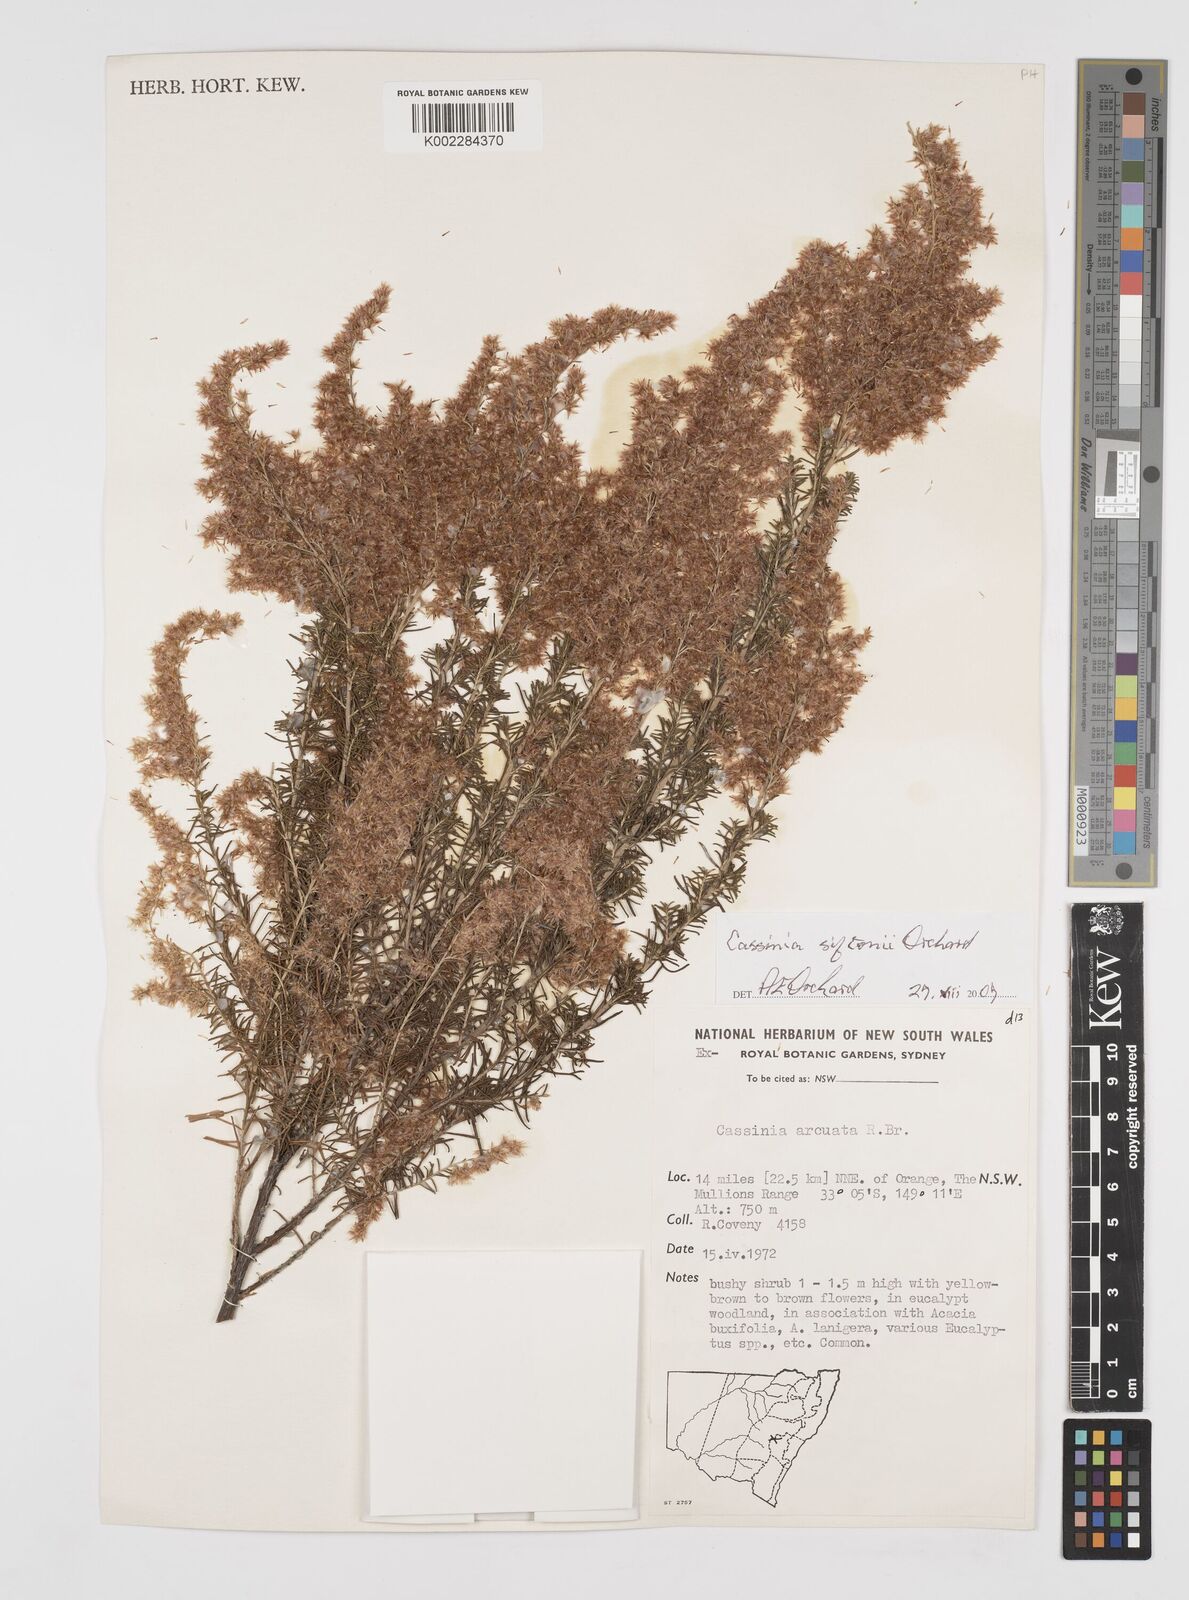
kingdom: Plantae
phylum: Tracheophyta
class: Magnoliopsida
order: Asterales
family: Asteraceae
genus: Cassinia
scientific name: Cassinia arcuata
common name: Chineseshrub
